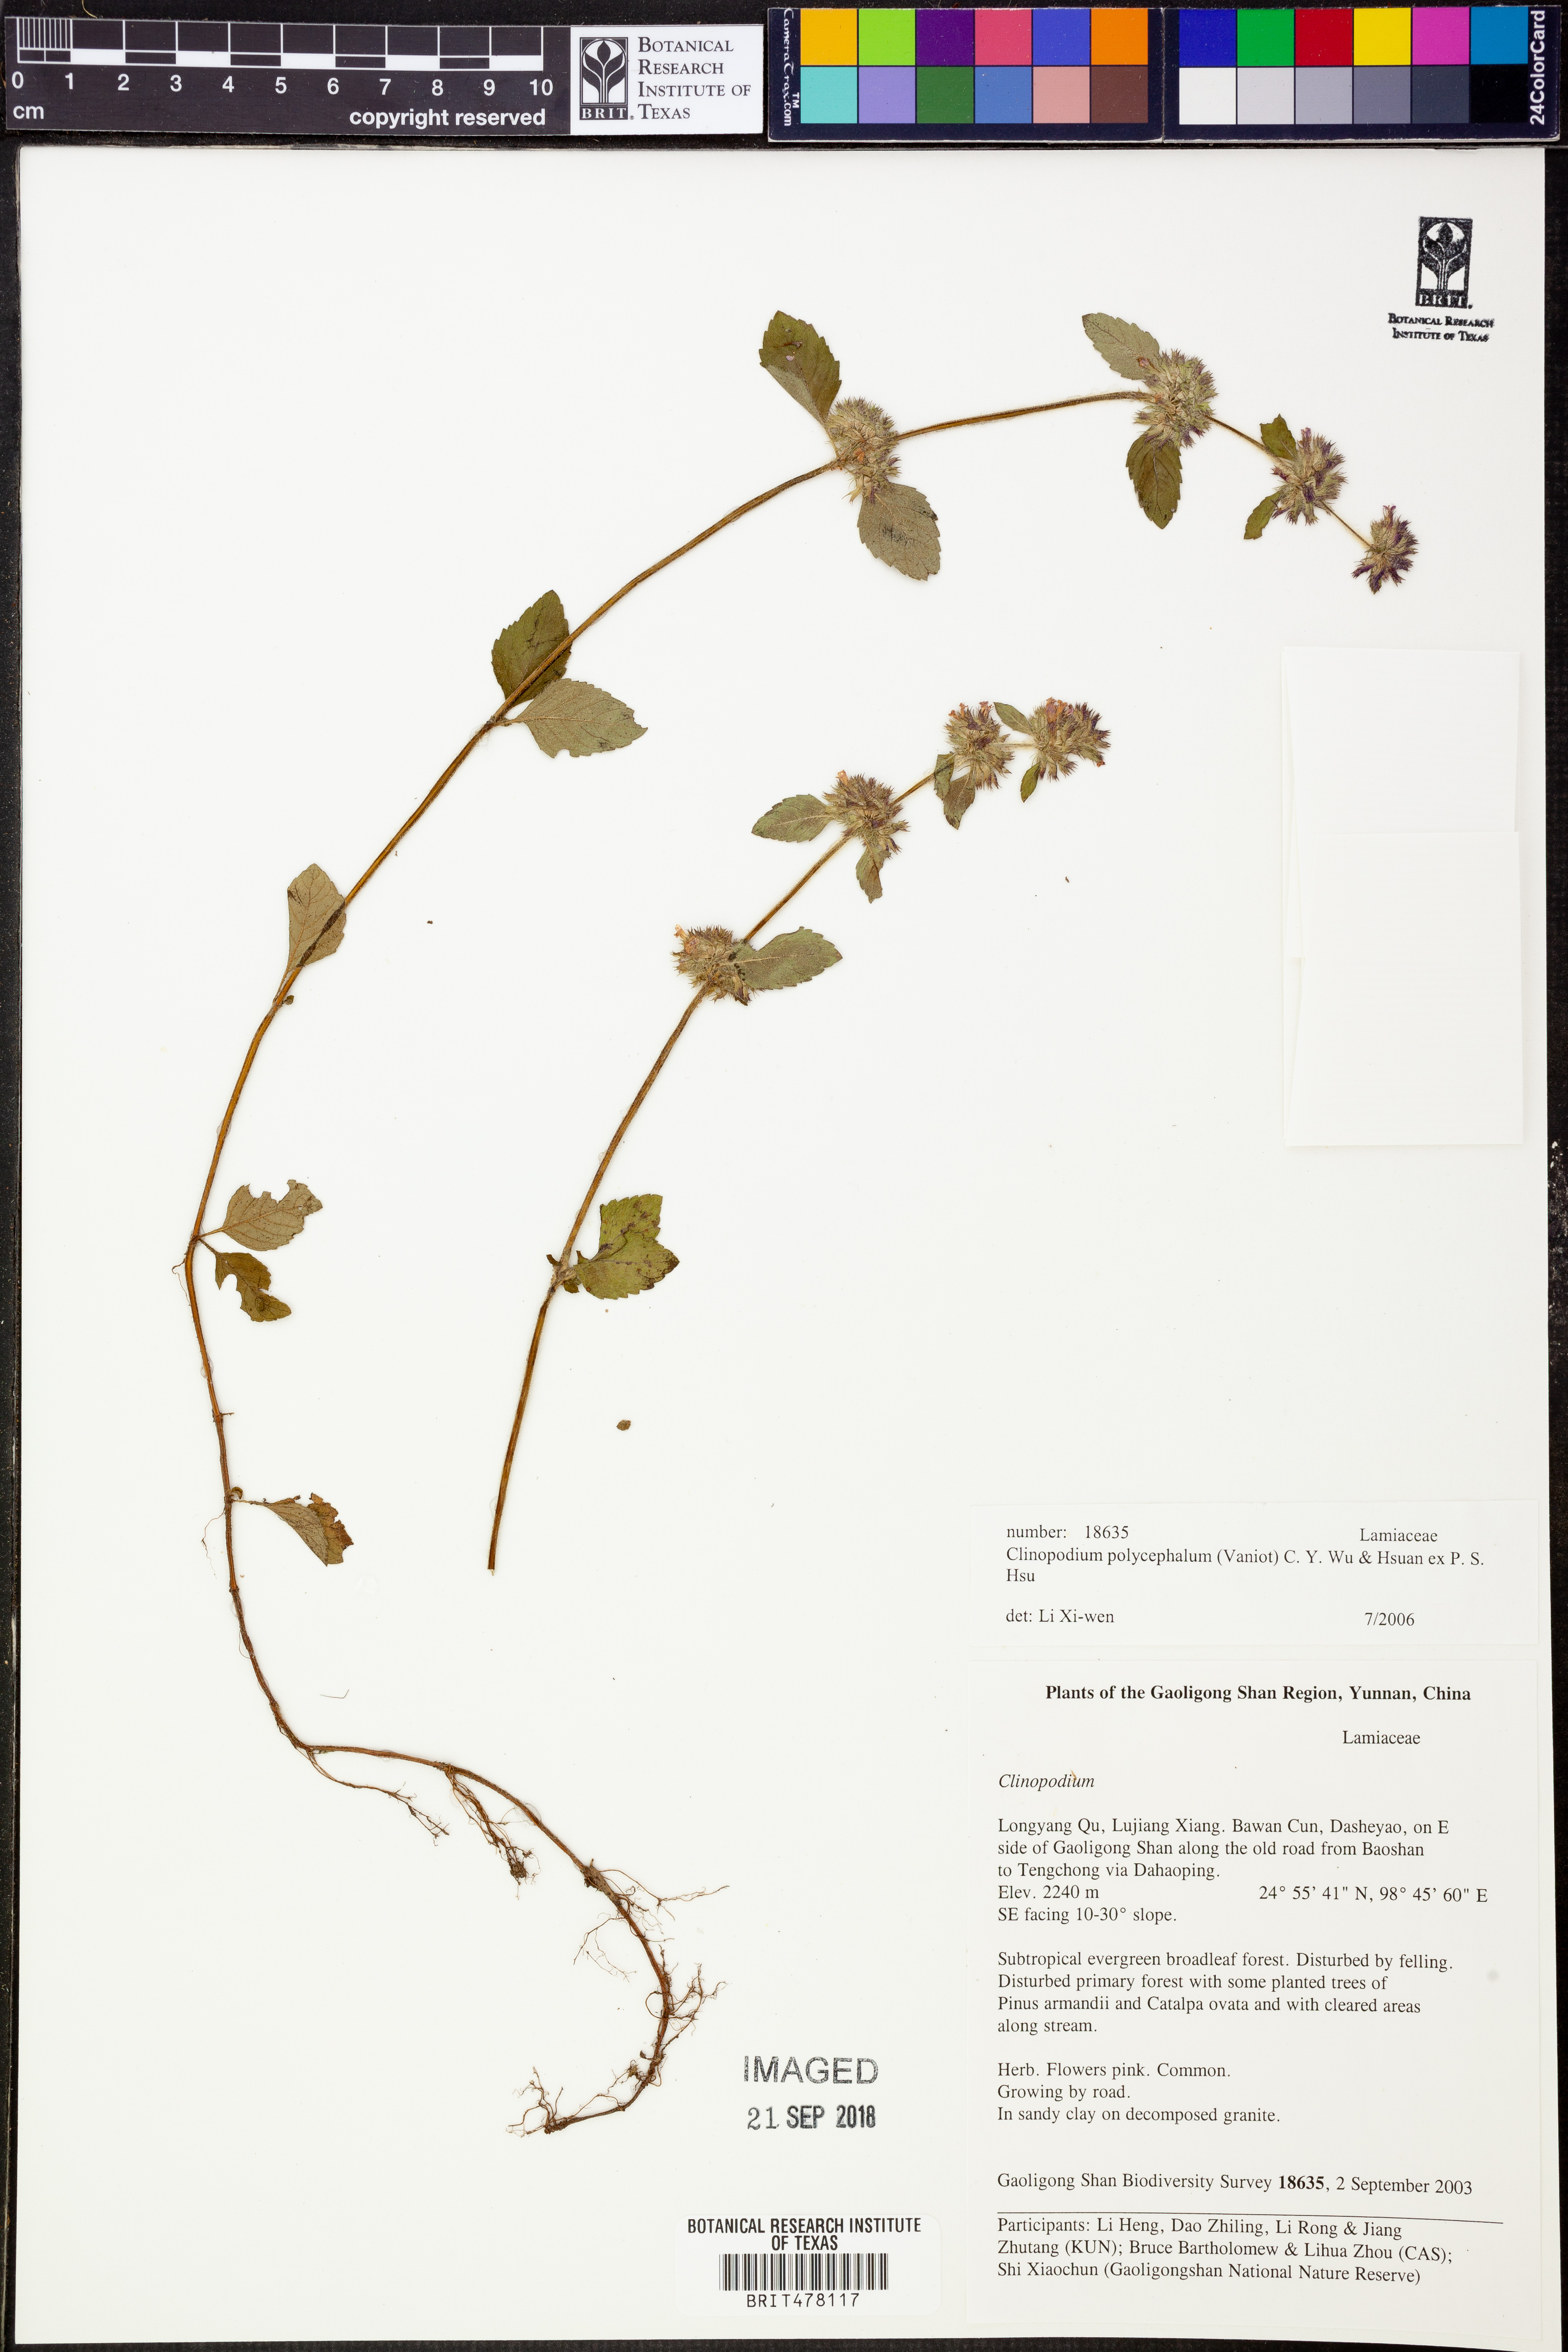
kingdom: Plantae
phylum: Tracheophyta
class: Magnoliopsida
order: Lamiales
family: Lamiaceae
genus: Clinopodium
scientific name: Clinopodium polycephalum
